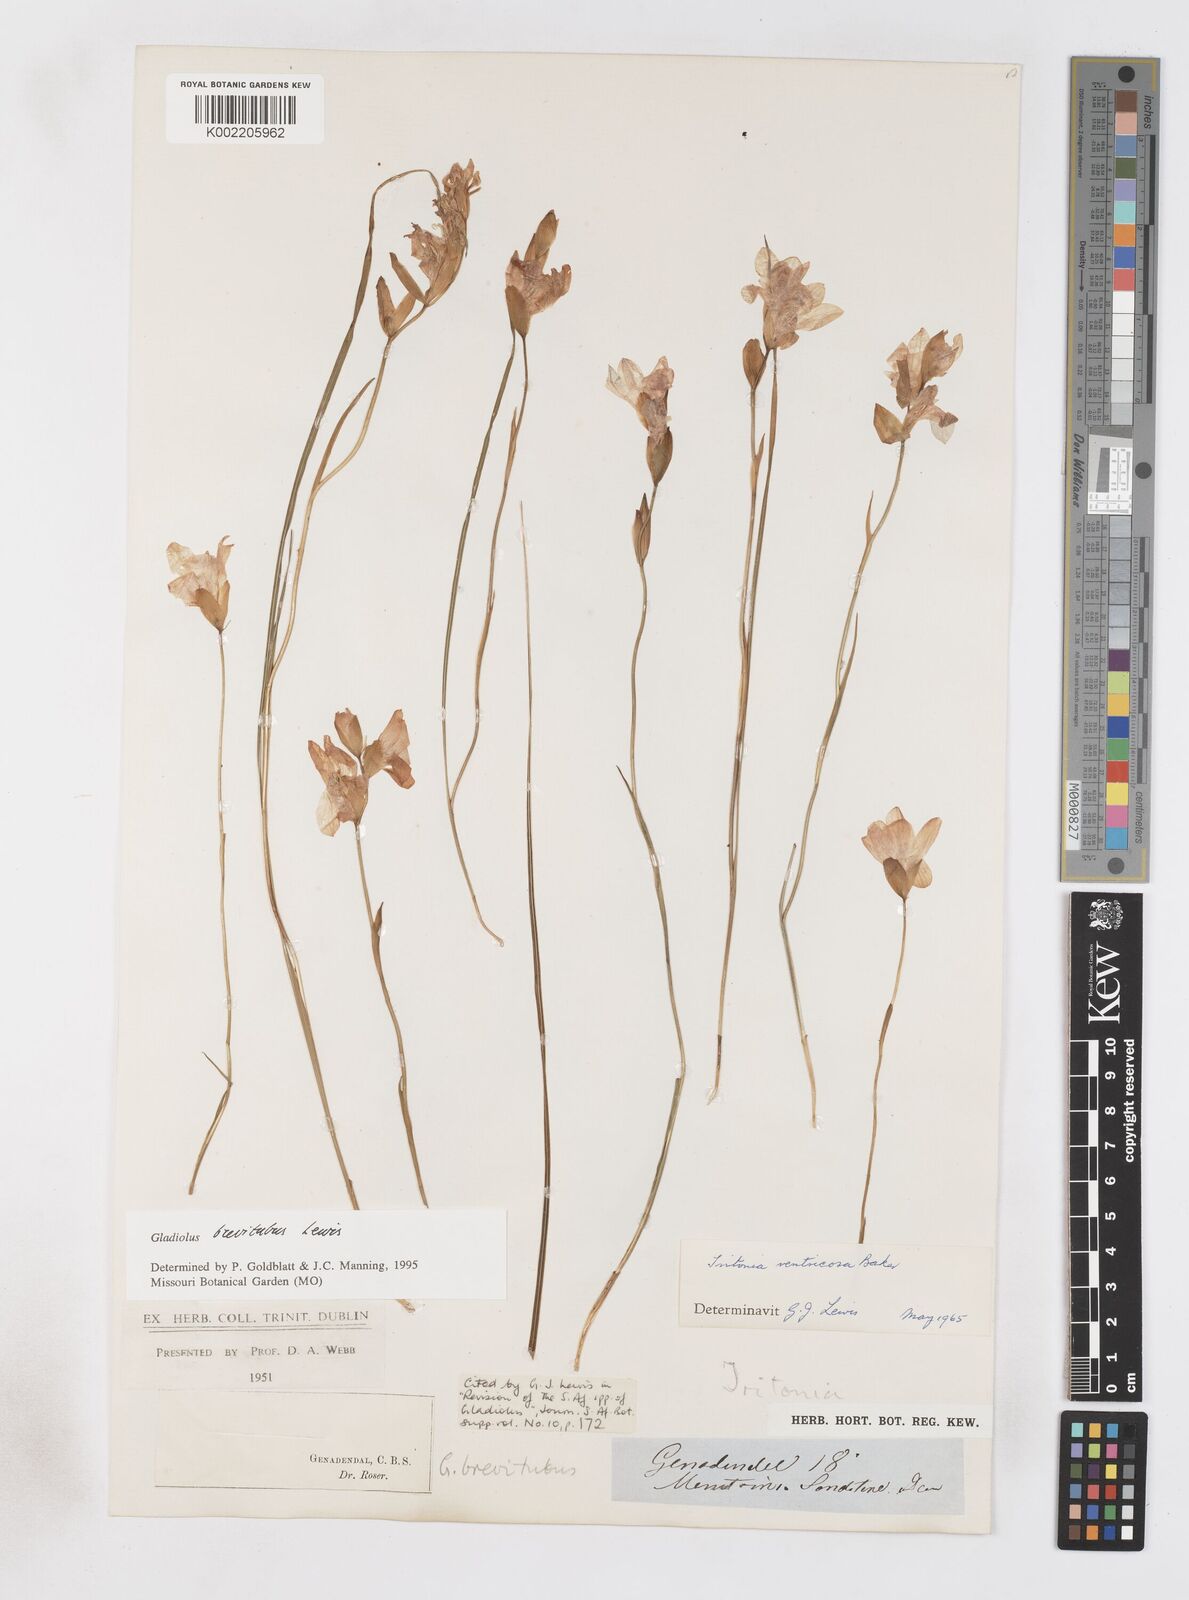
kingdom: Plantae
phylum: Tracheophyta
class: Liliopsida
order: Asparagales
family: Iridaceae
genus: Gladiolus
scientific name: Gladiolus brevitubus
